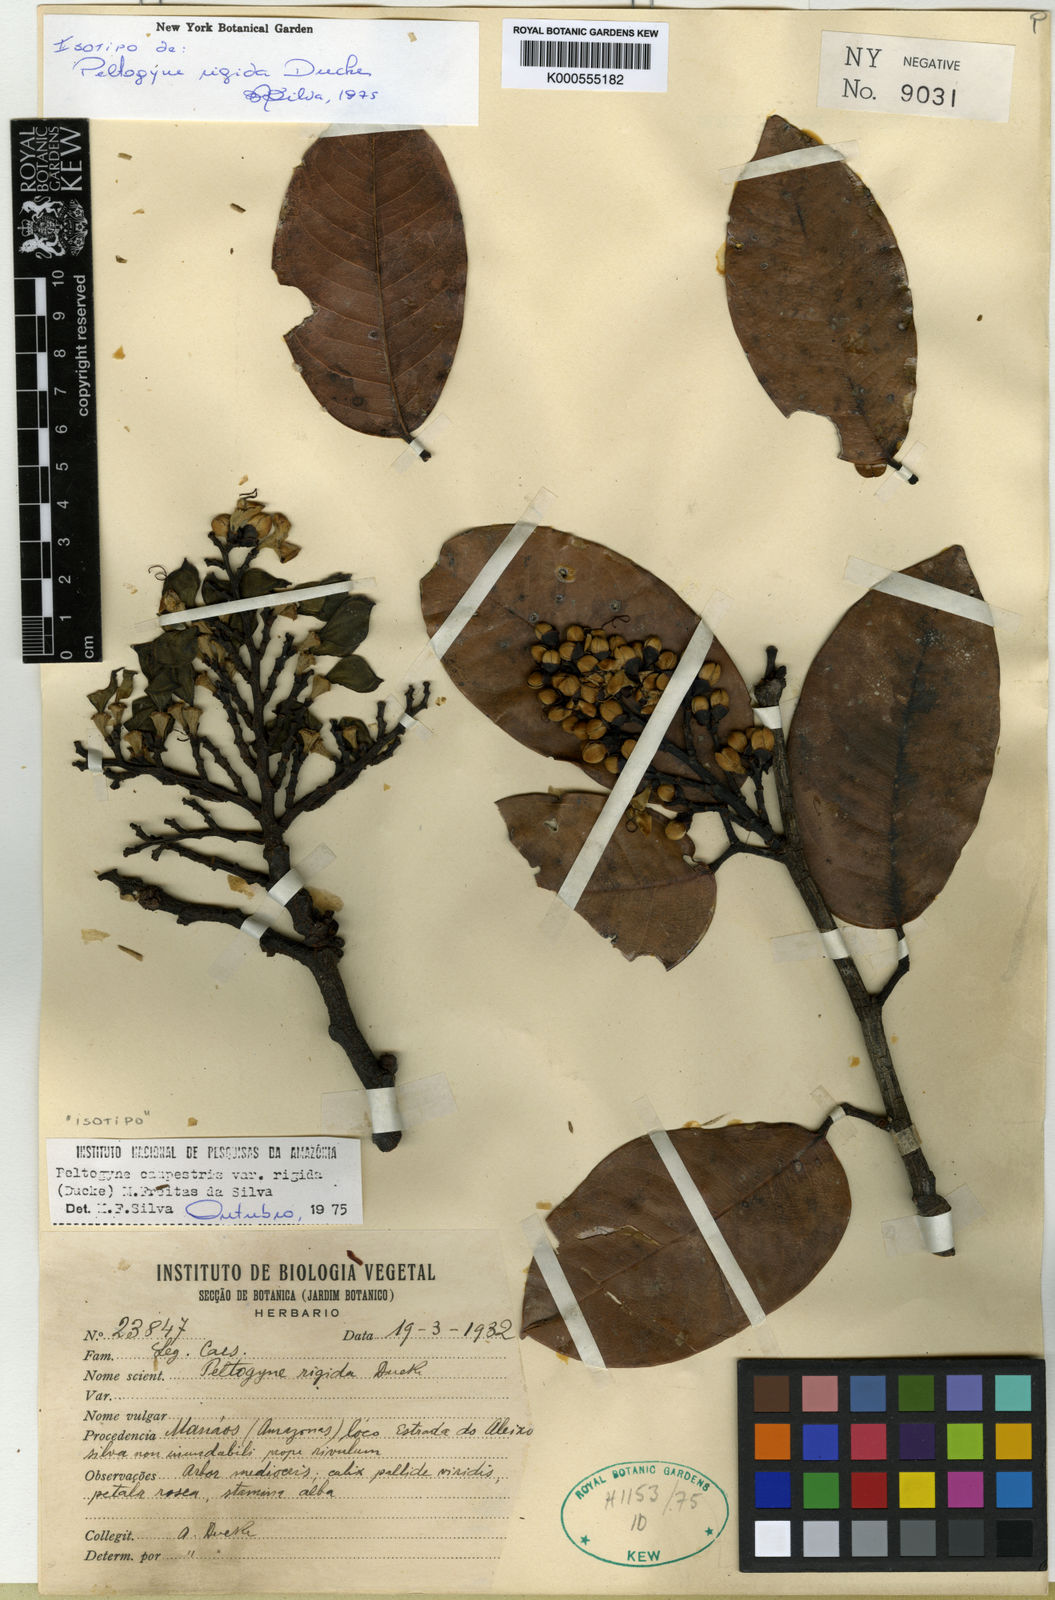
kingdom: Plantae
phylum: Tracheophyta
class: Magnoliopsida
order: Fabales
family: Fabaceae
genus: Peltogyne
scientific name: Peltogyne campestris
